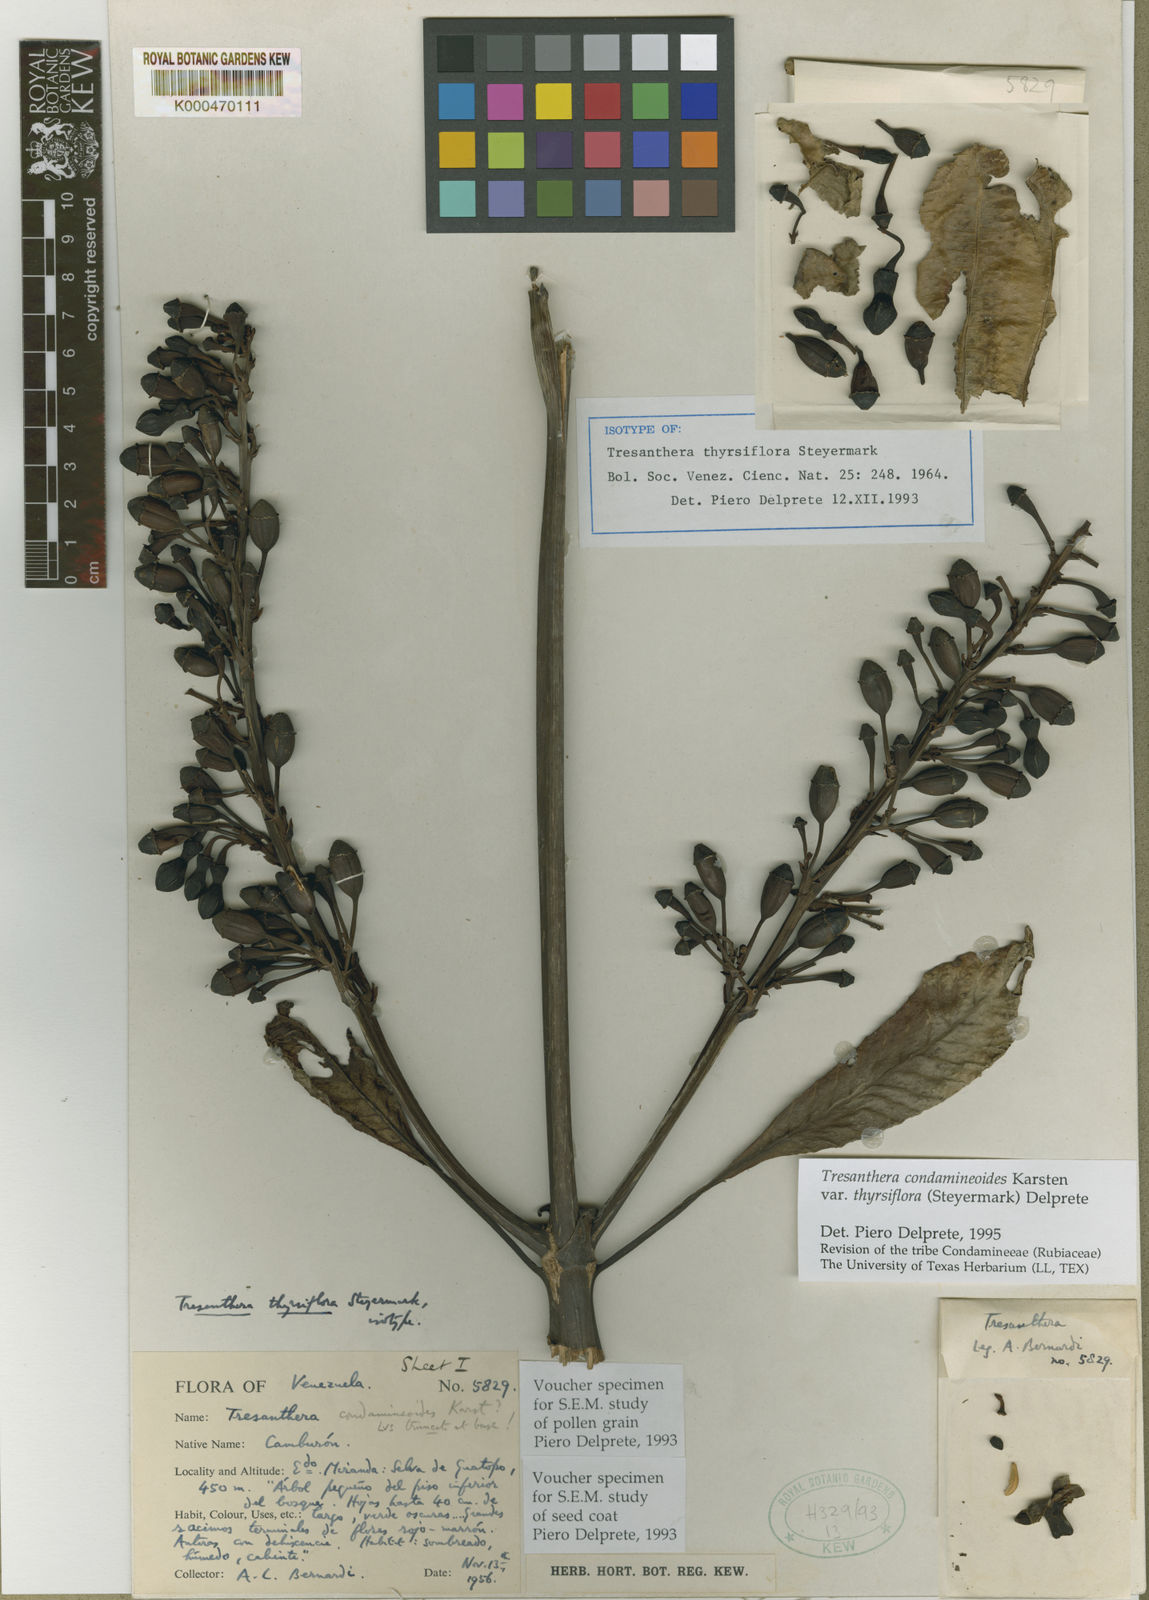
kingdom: Plantae
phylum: Tracheophyta
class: Magnoliopsida
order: Gentianales
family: Rubiaceae
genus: Rustia
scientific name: Rustia condamineoides
